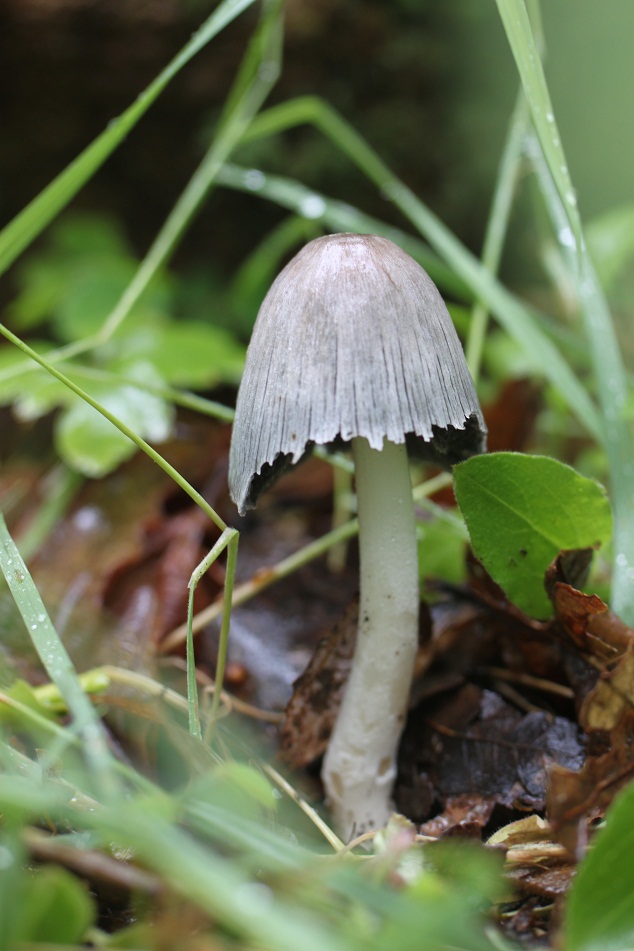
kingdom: Fungi
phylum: Basidiomycota
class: Agaricomycetes
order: Agaricales
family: Psathyrellaceae
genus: Coprinopsis
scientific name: Coprinopsis insignis
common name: stor blækhat
